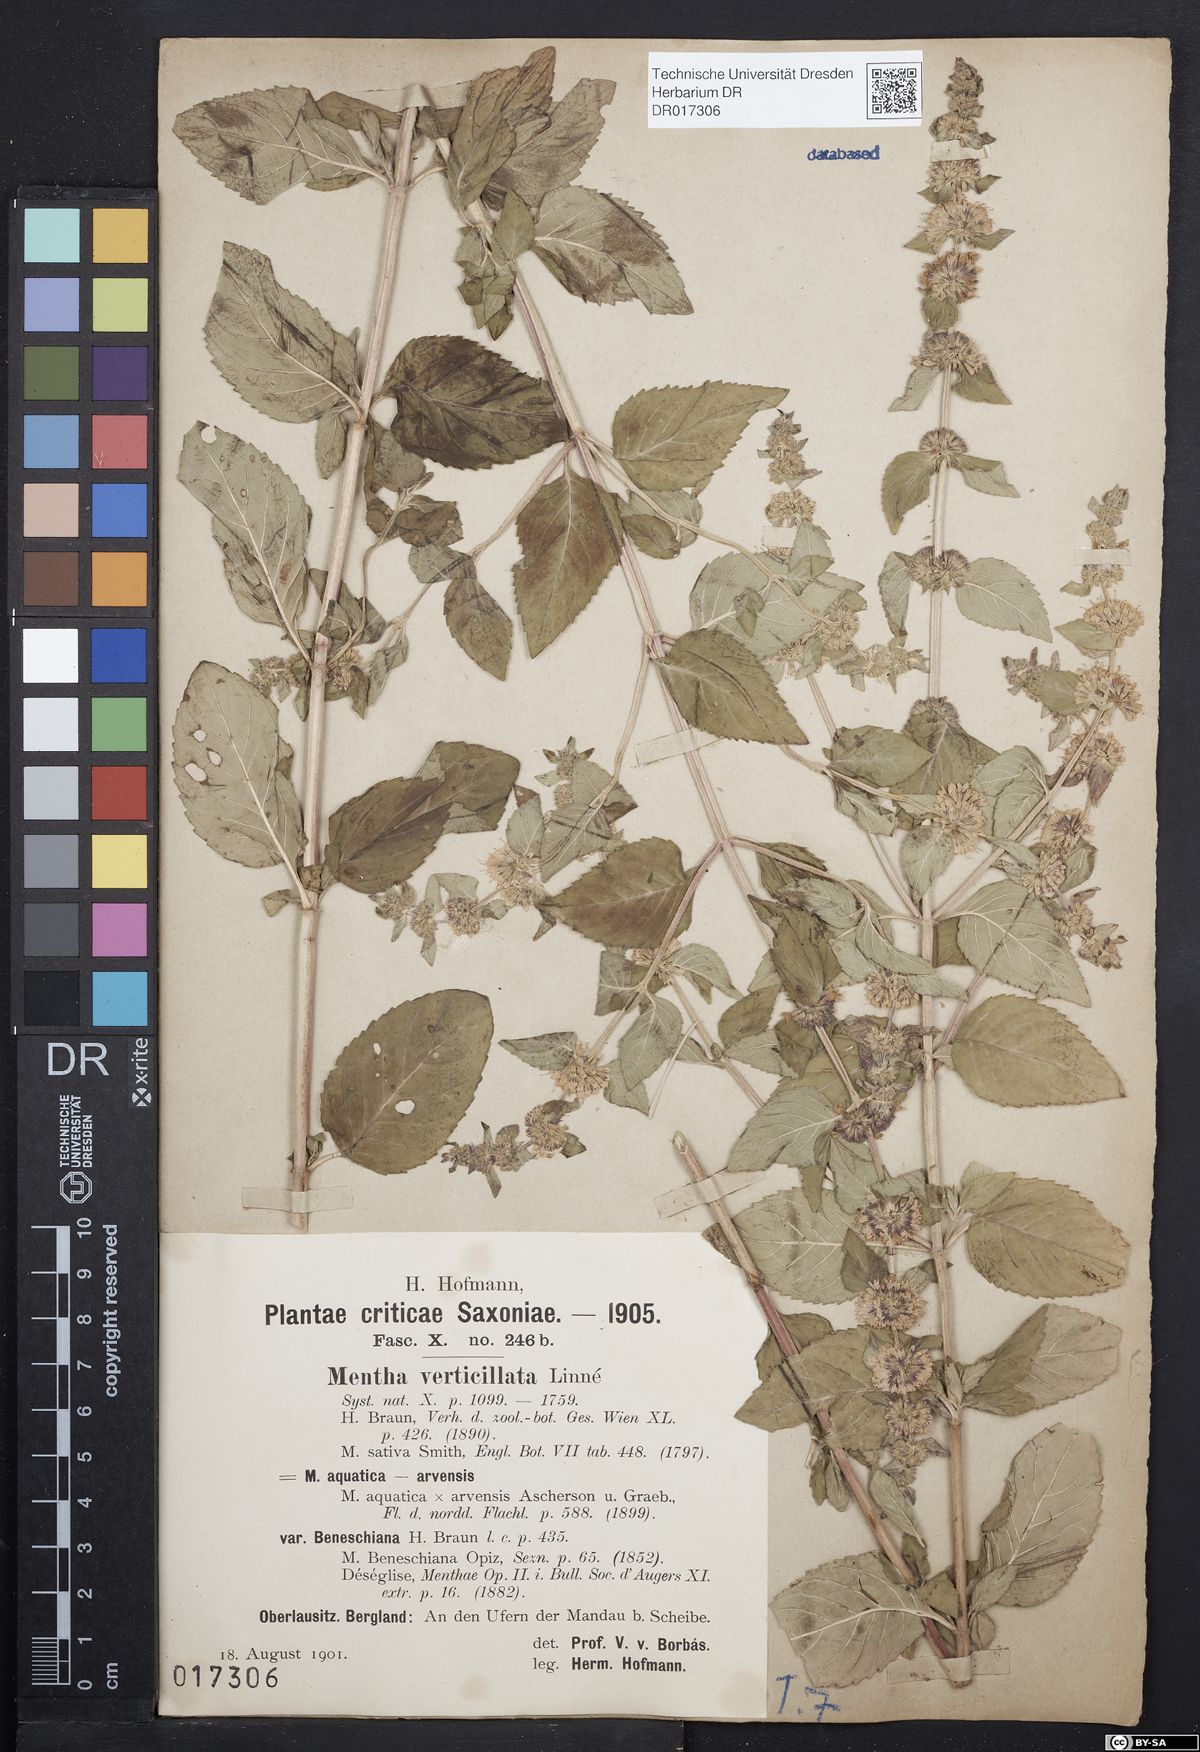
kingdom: Plantae
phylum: Tracheophyta
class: Magnoliopsida
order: Lamiales
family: Lamiaceae
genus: Mentha
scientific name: Mentha verticillata
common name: Mint
